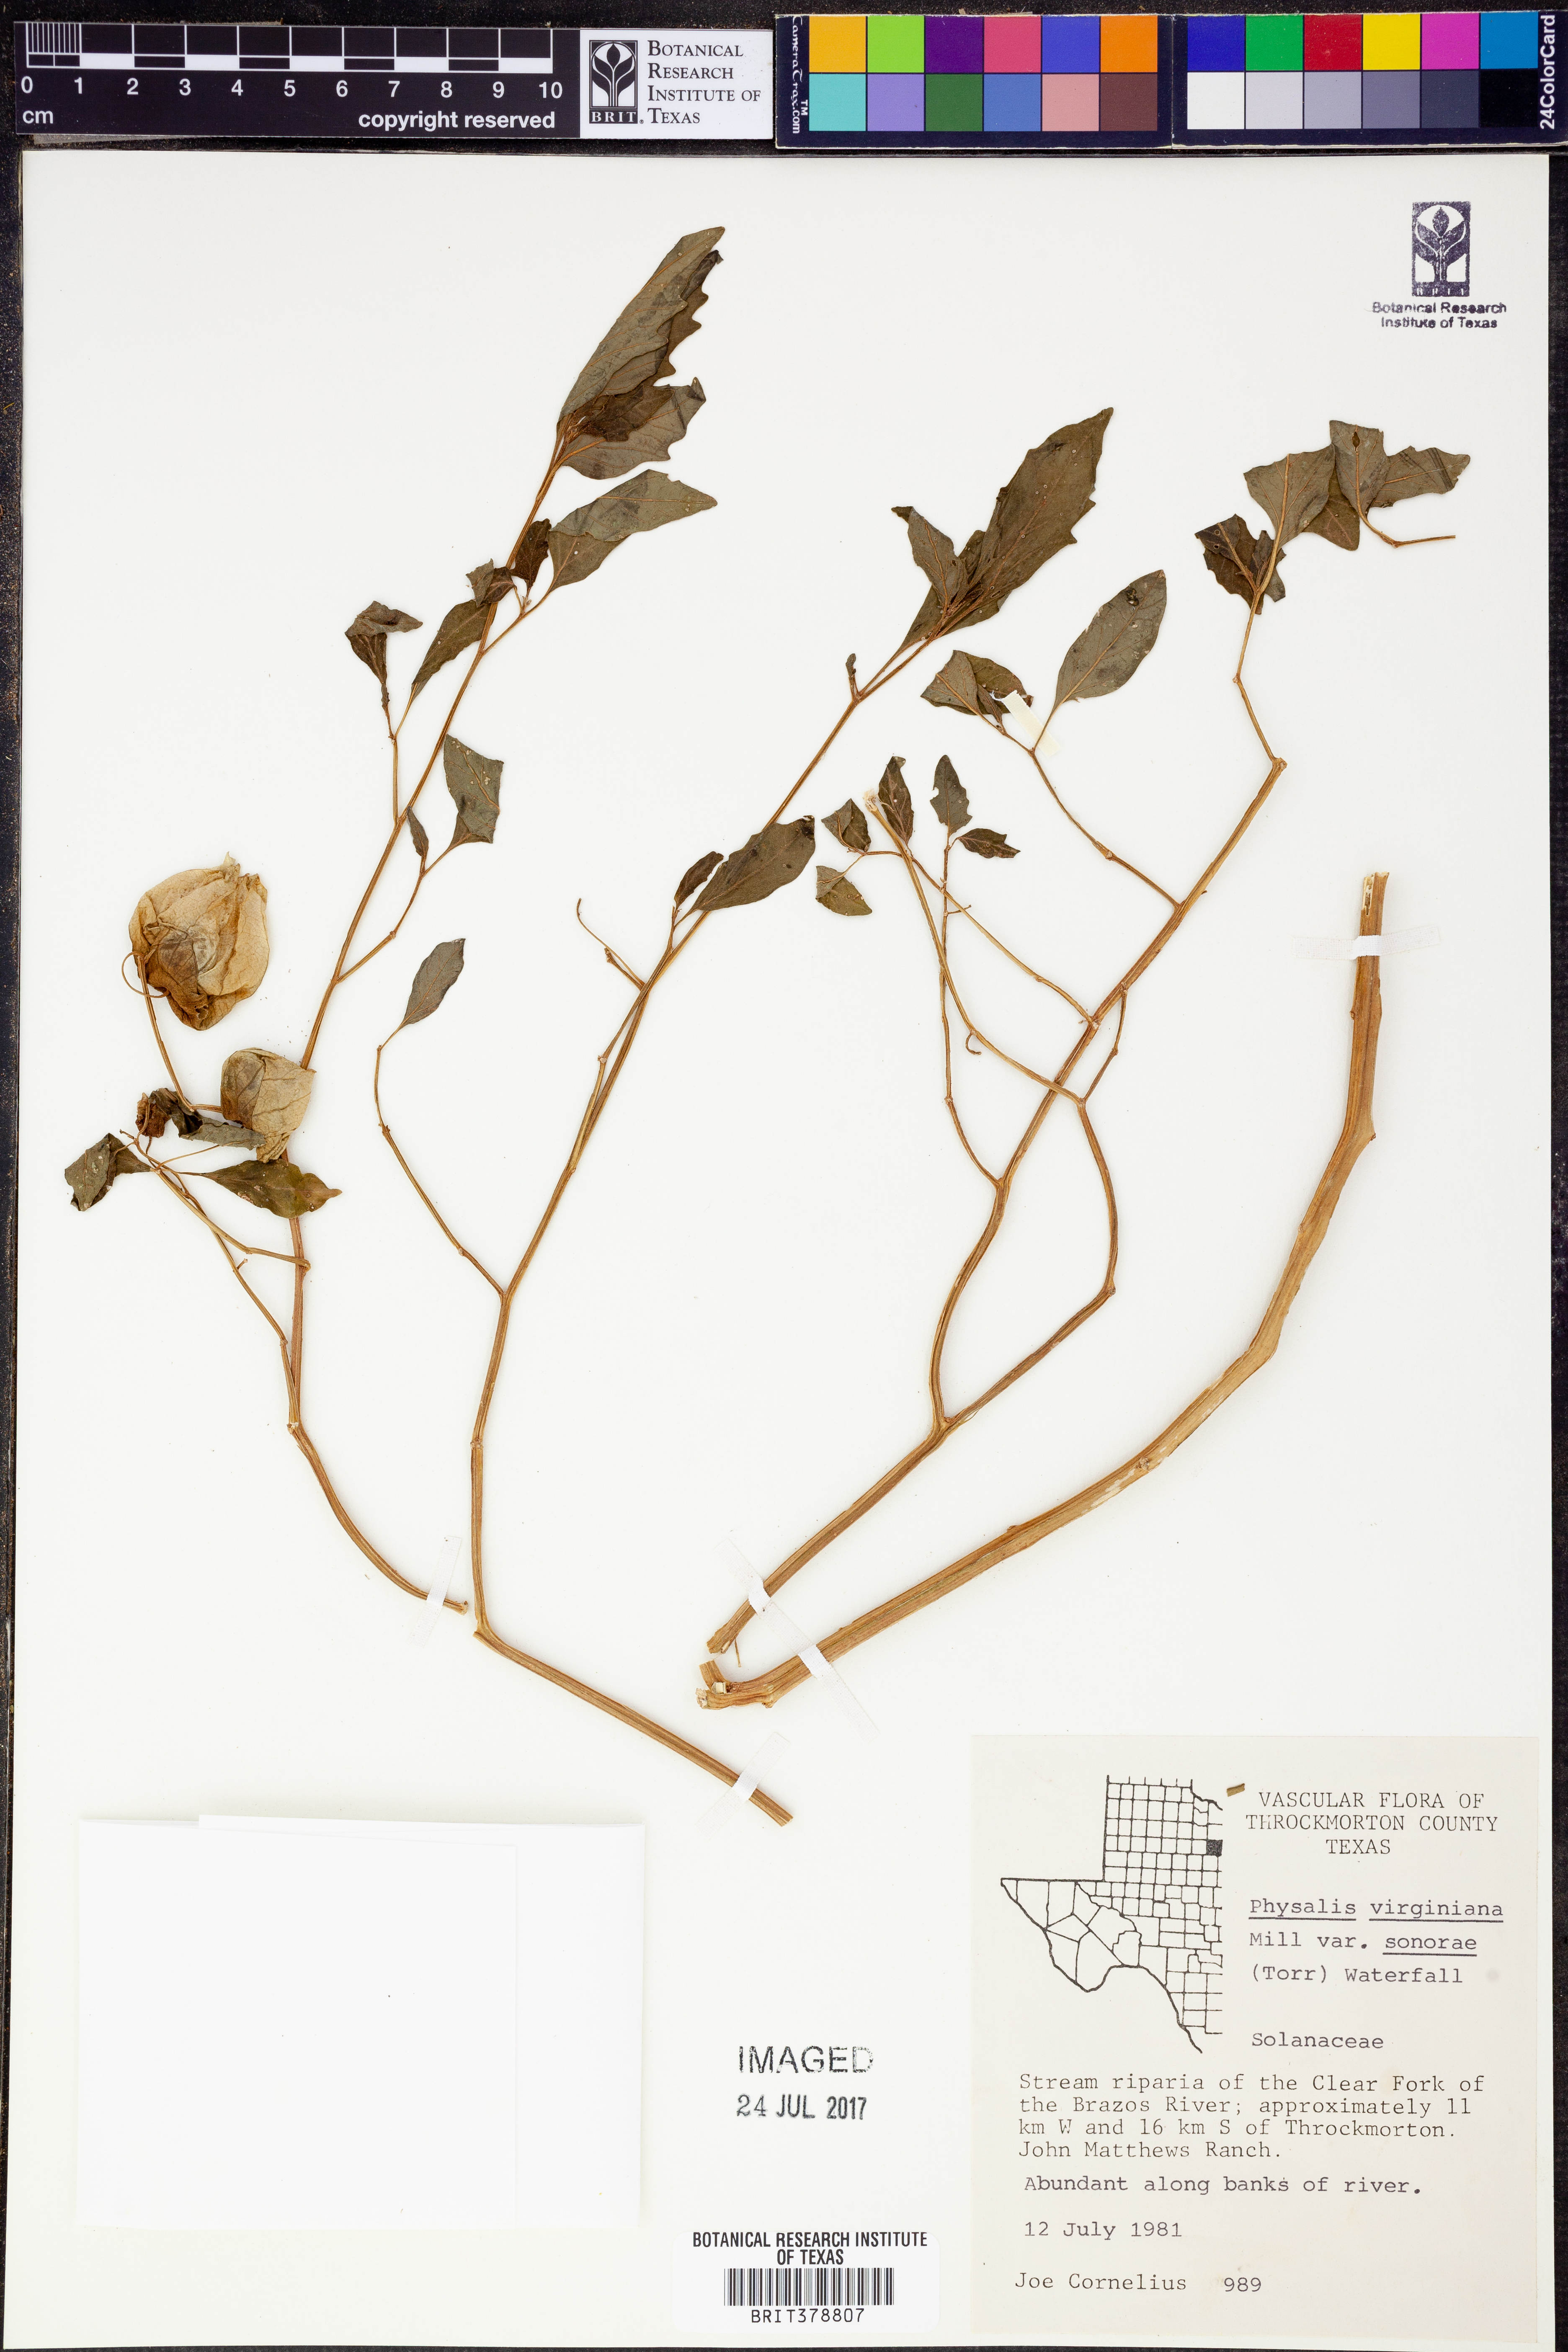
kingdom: Plantae
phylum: Tracheophyta
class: Magnoliopsida
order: Solanales
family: Solanaceae
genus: Physalis
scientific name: Physalis longifolia
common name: Common ground-cherry
